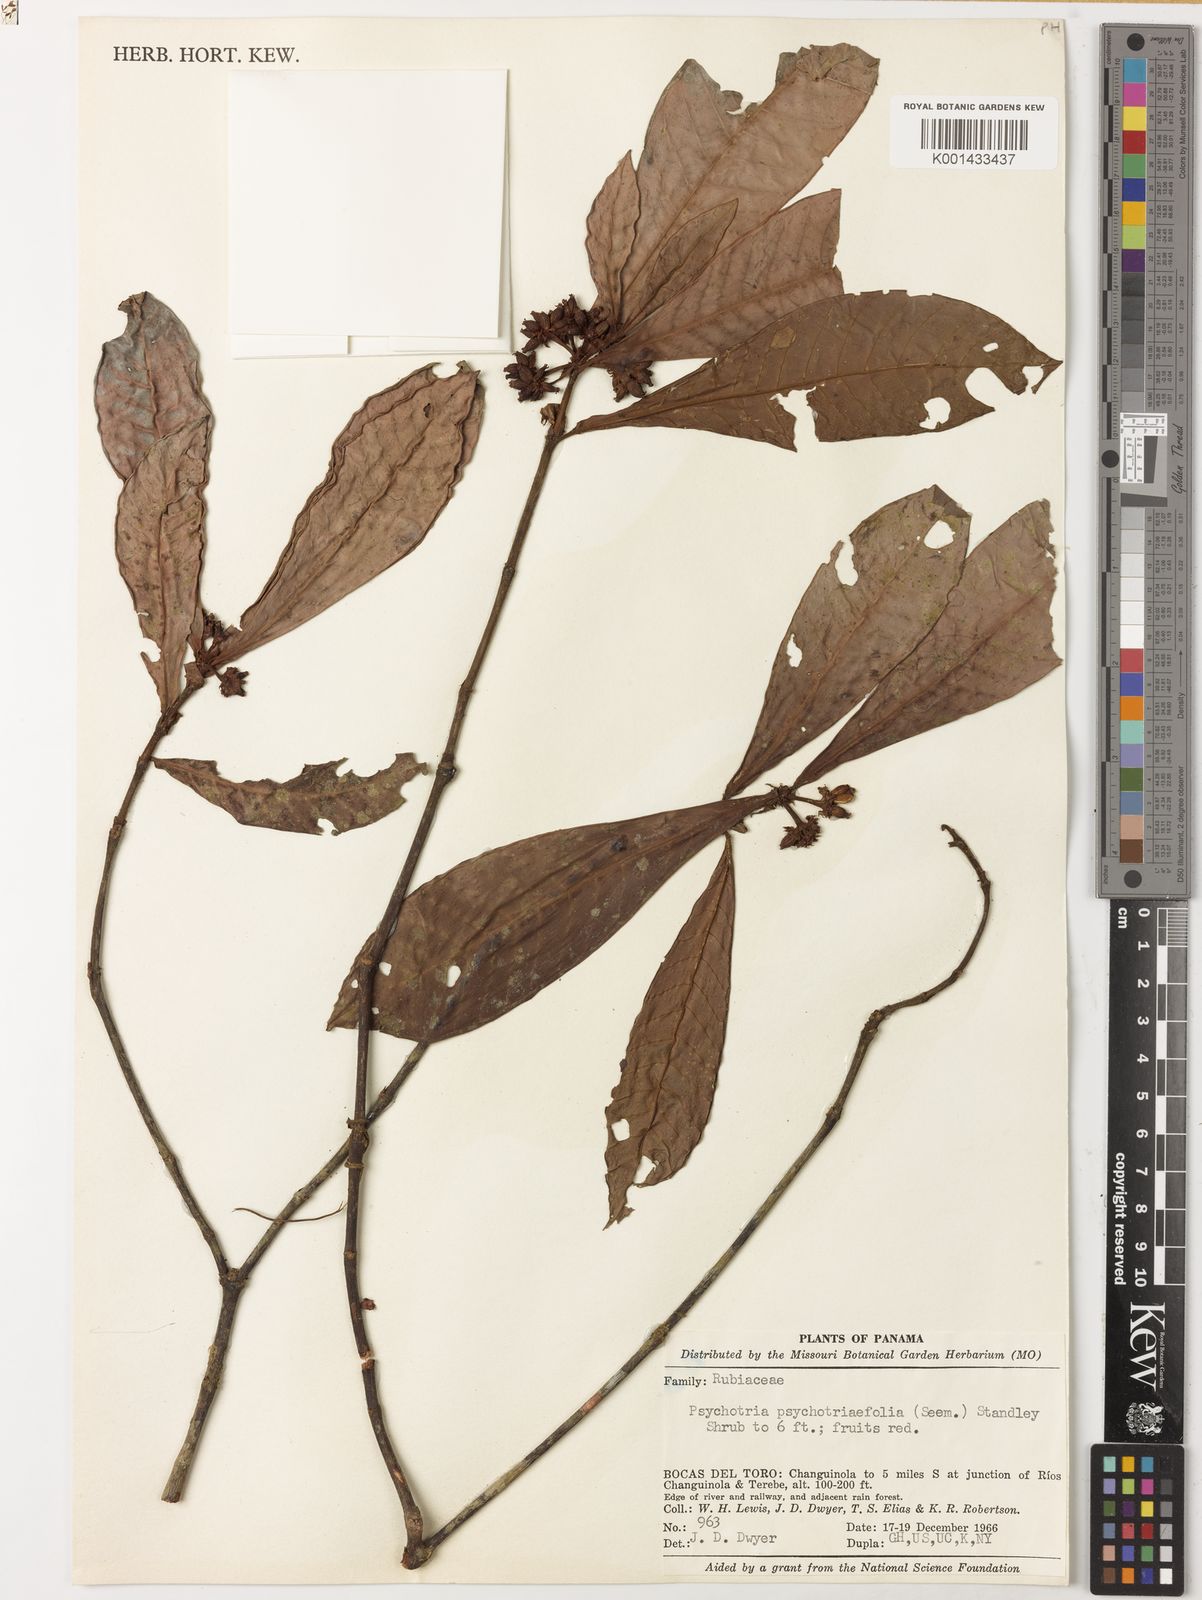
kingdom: Plantae
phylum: Tracheophyta
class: Magnoliopsida
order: Gentianales
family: Rubiaceae
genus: Psychotria
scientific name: Psychotria psychotriifolia
